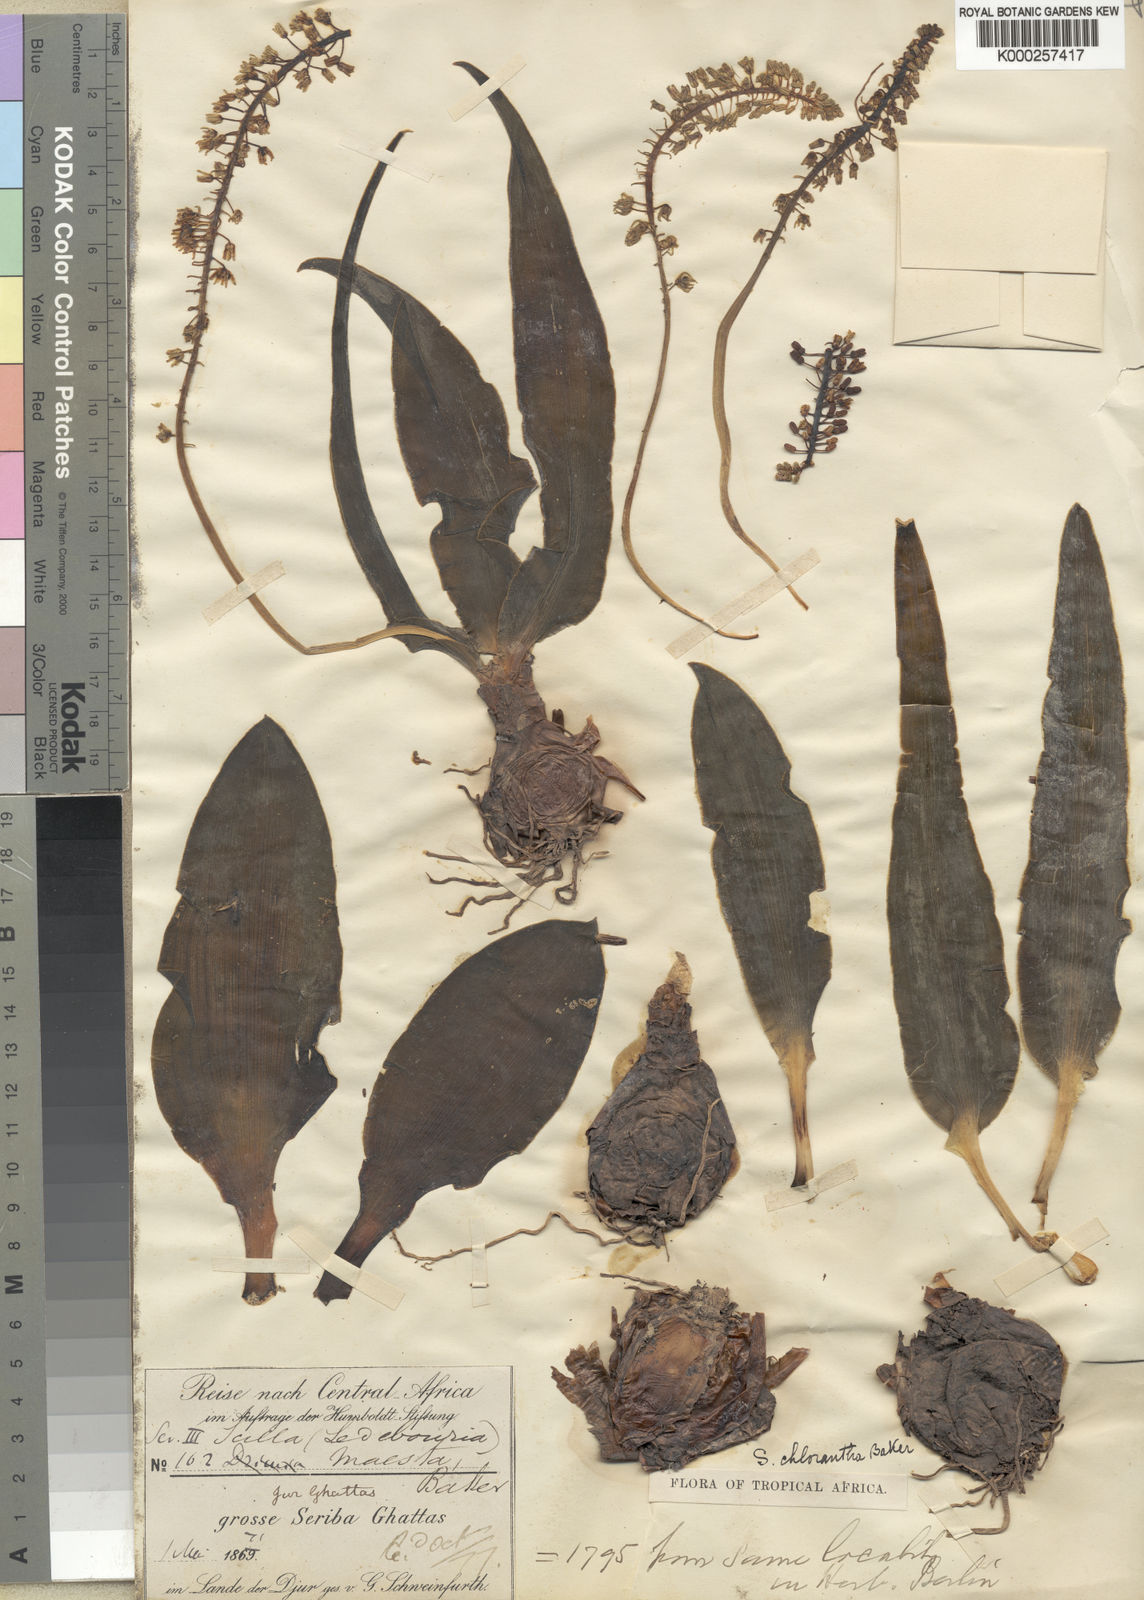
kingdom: Plantae
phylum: Tracheophyta
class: Liliopsida
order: Asparagales
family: Asparagaceae
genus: Scilla
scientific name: Scilla chlorantha
